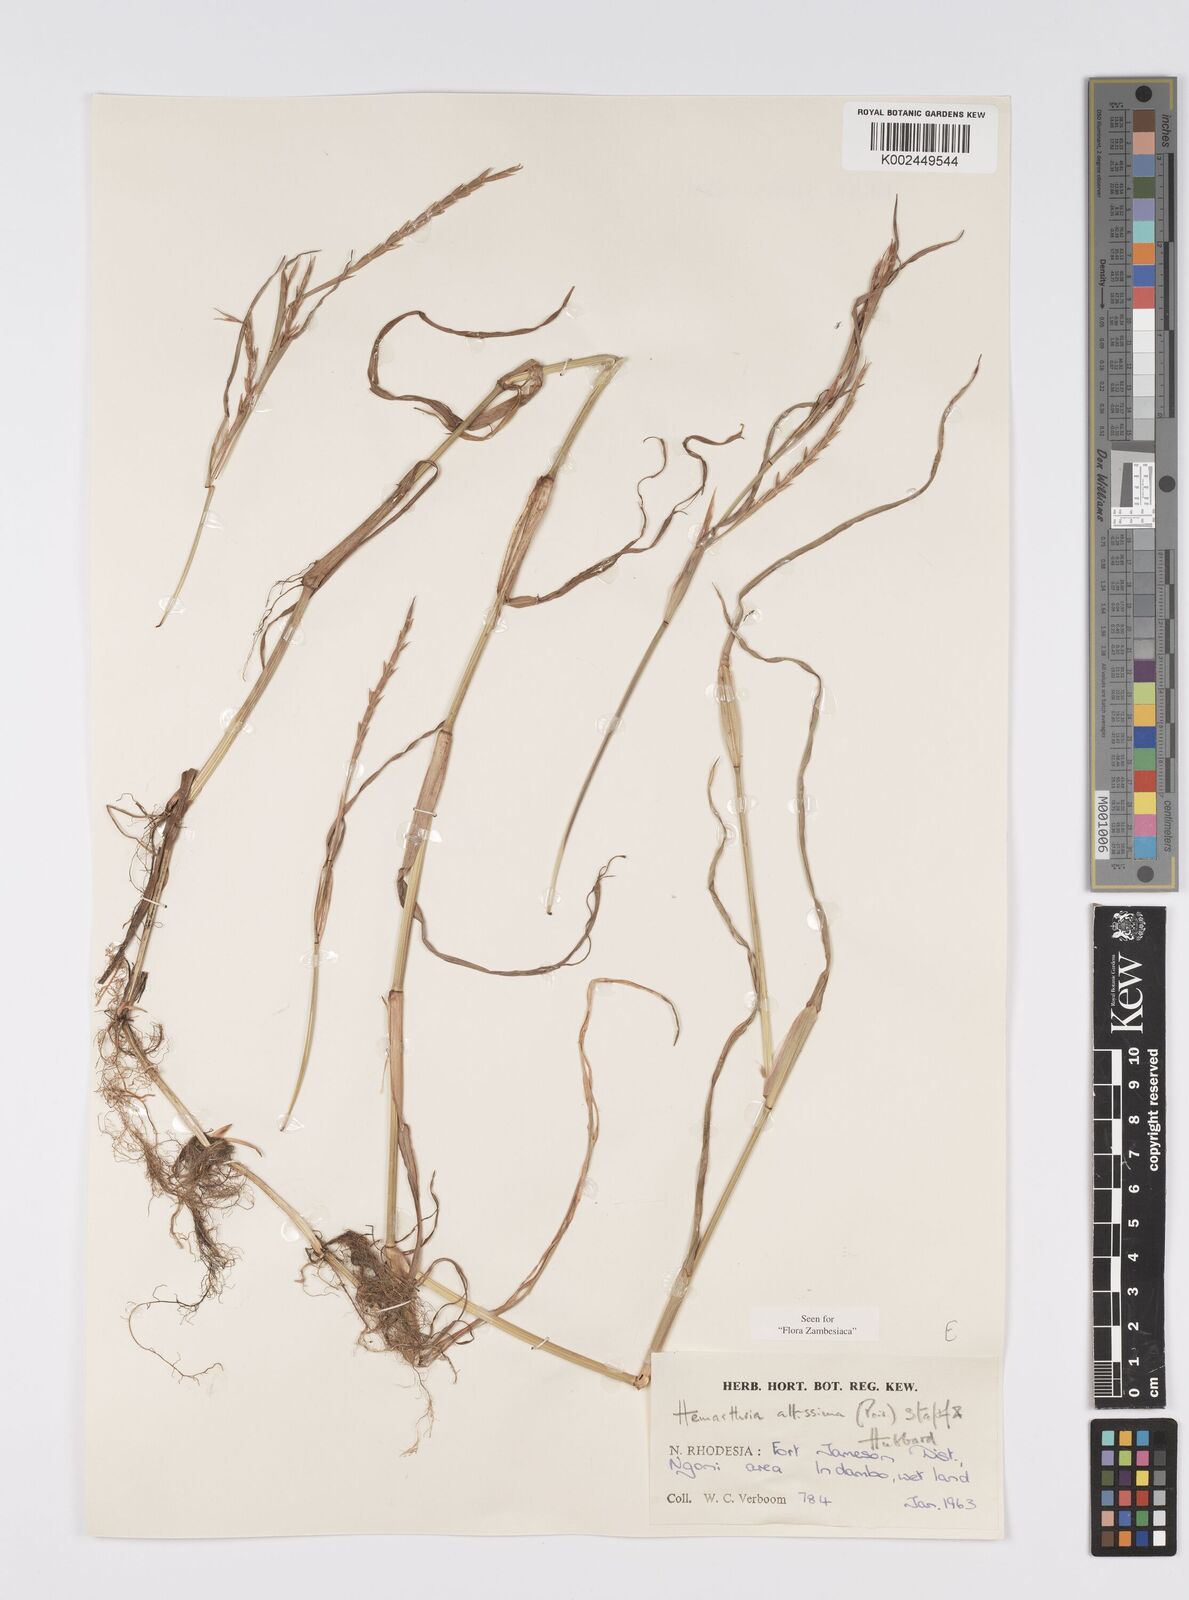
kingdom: Plantae
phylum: Tracheophyta
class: Liliopsida
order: Poales
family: Poaceae
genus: Hemarthria
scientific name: Hemarthria altissima
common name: African jointgrass
